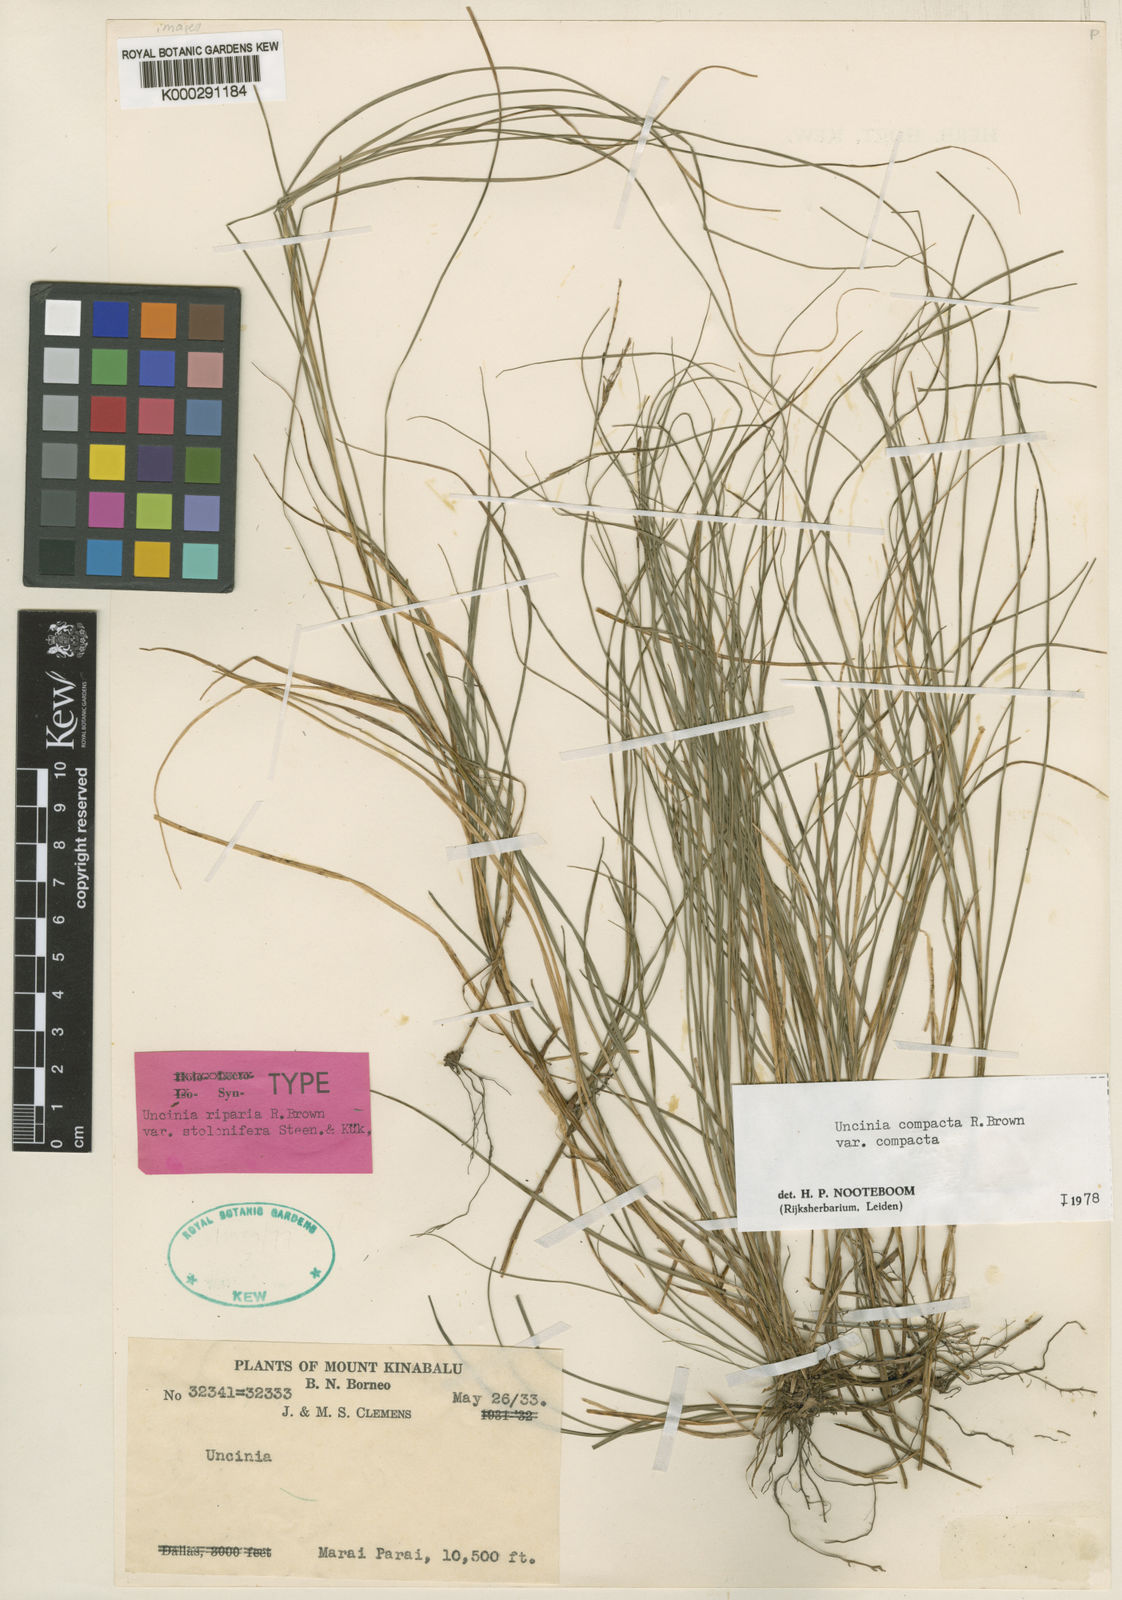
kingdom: Plantae
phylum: Tracheophyta
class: Liliopsida
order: Poales
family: Cyperaceae
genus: Carex
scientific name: Carex austrocompacta
